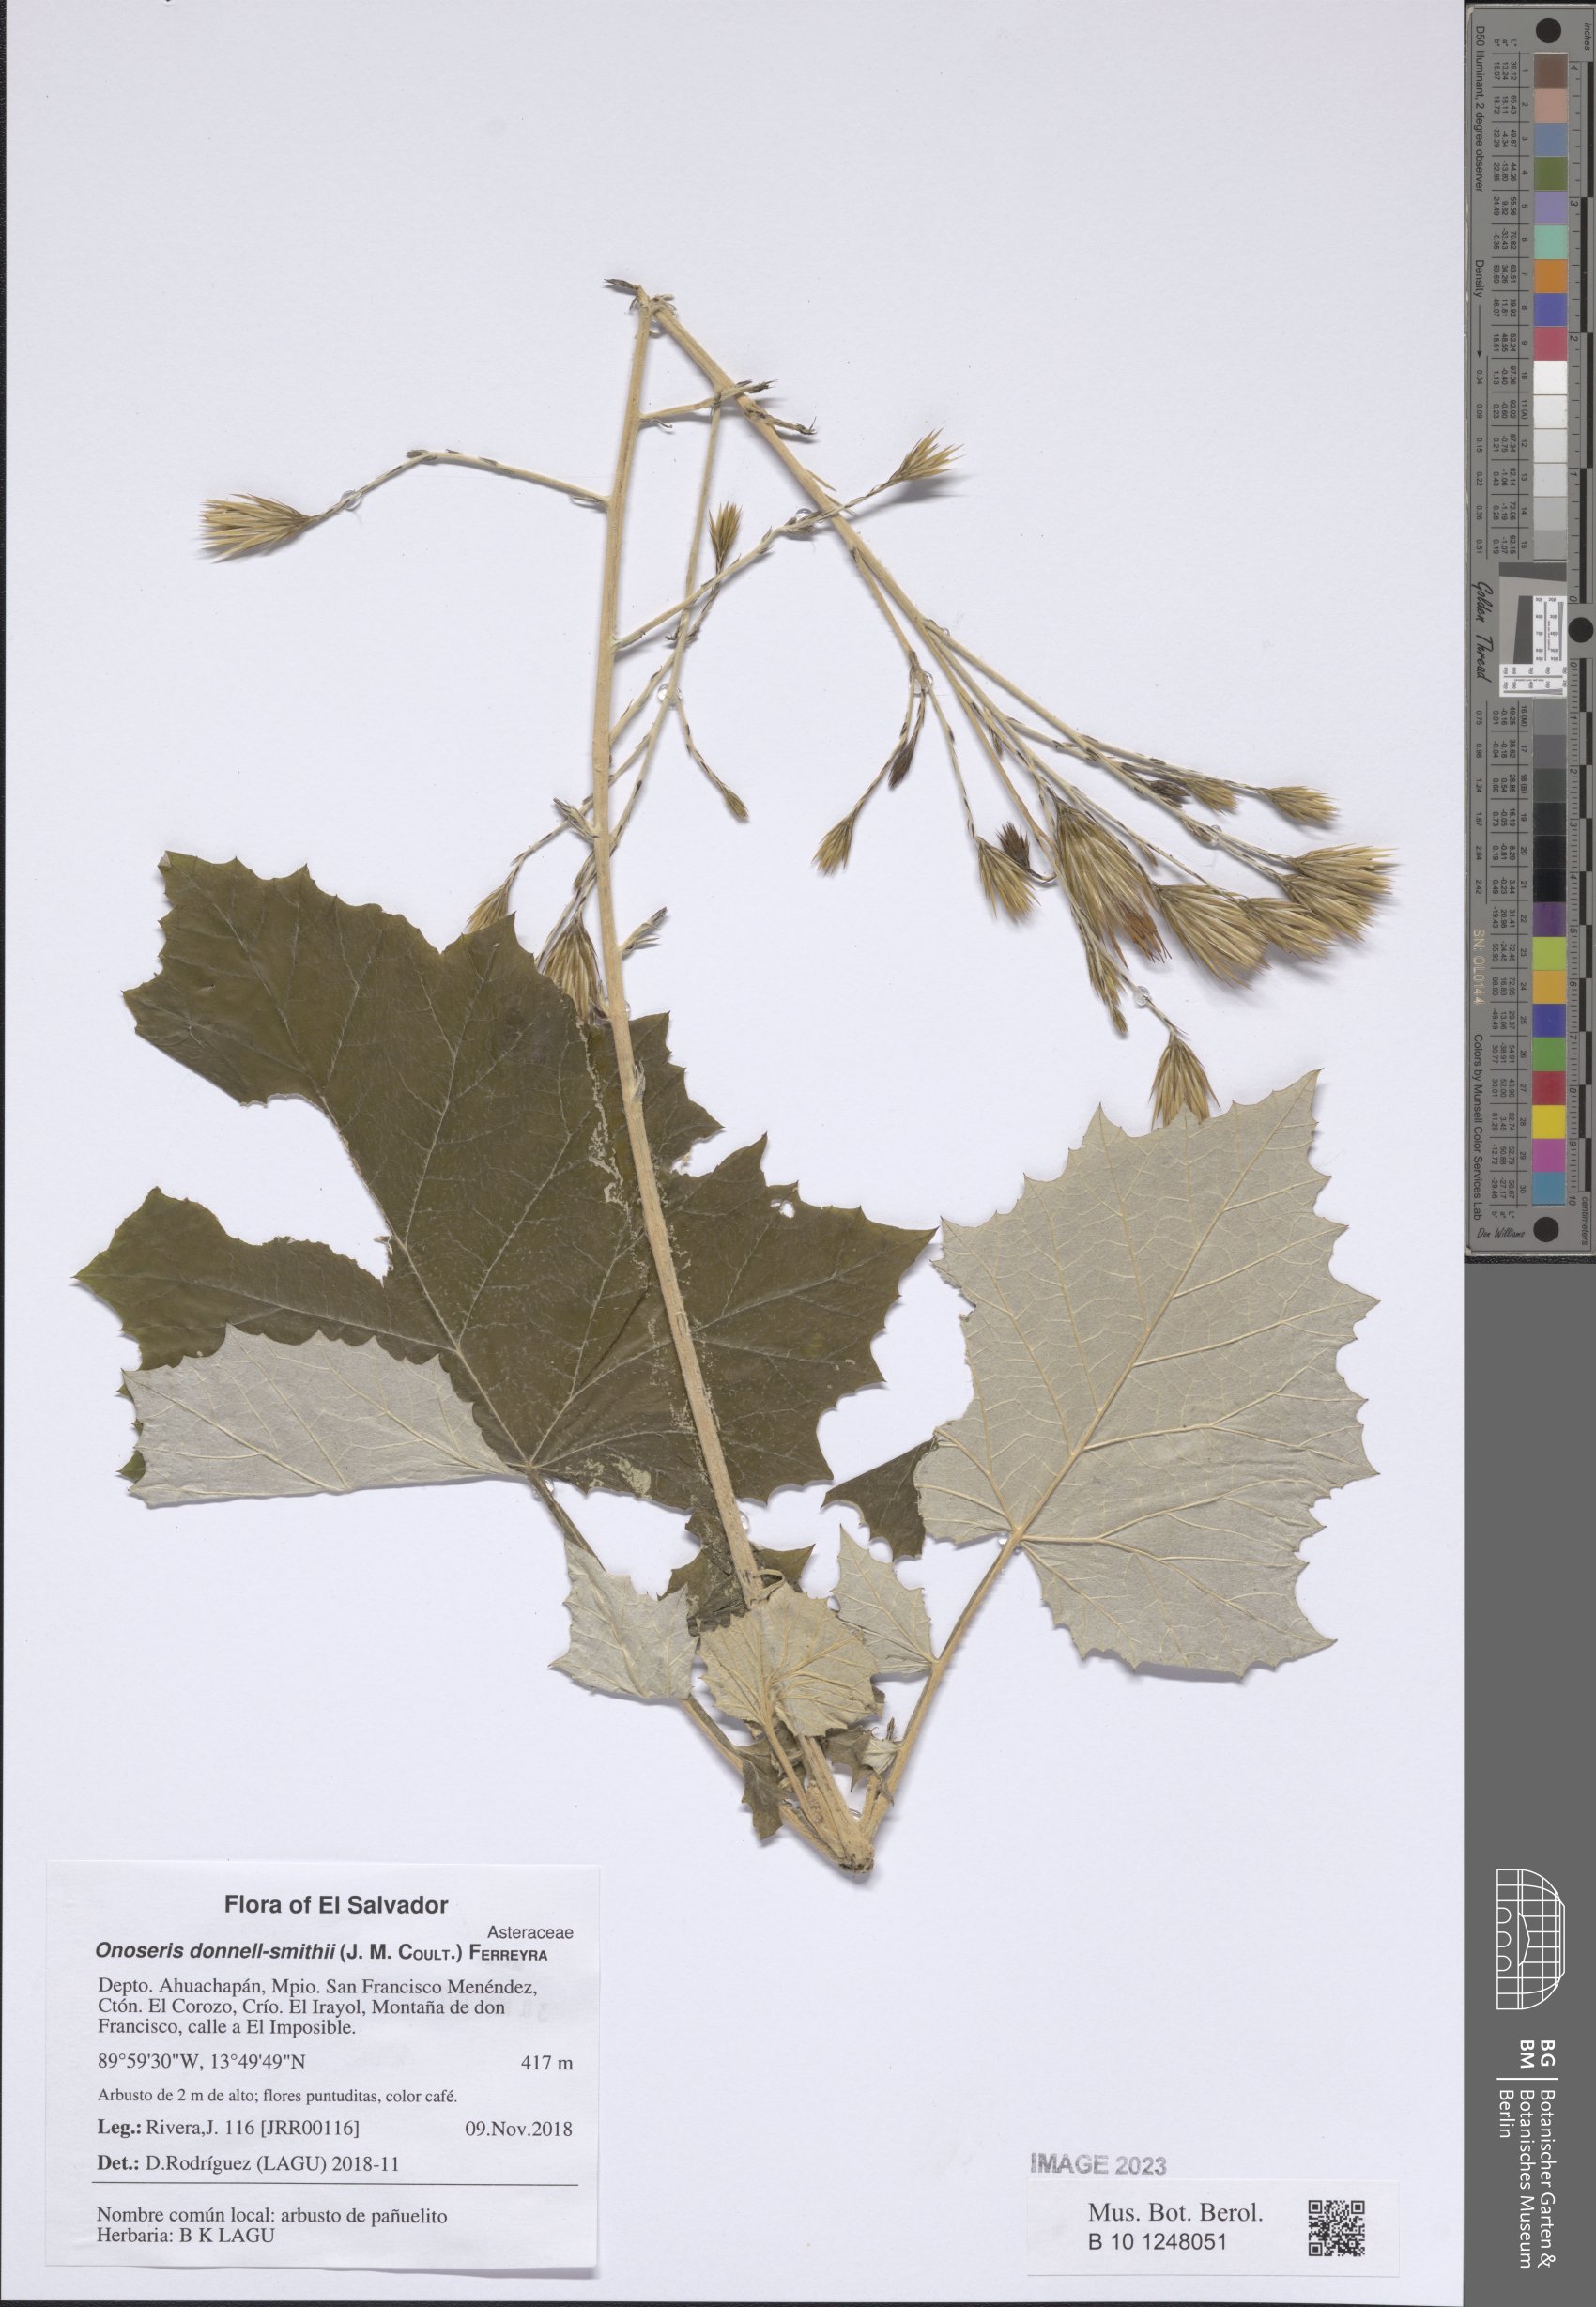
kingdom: Plantae
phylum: Tracheophyta
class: Magnoliopsida
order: Asterales
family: Asteraceae
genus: Onoseris
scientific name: Onoseris donnell-smithii
